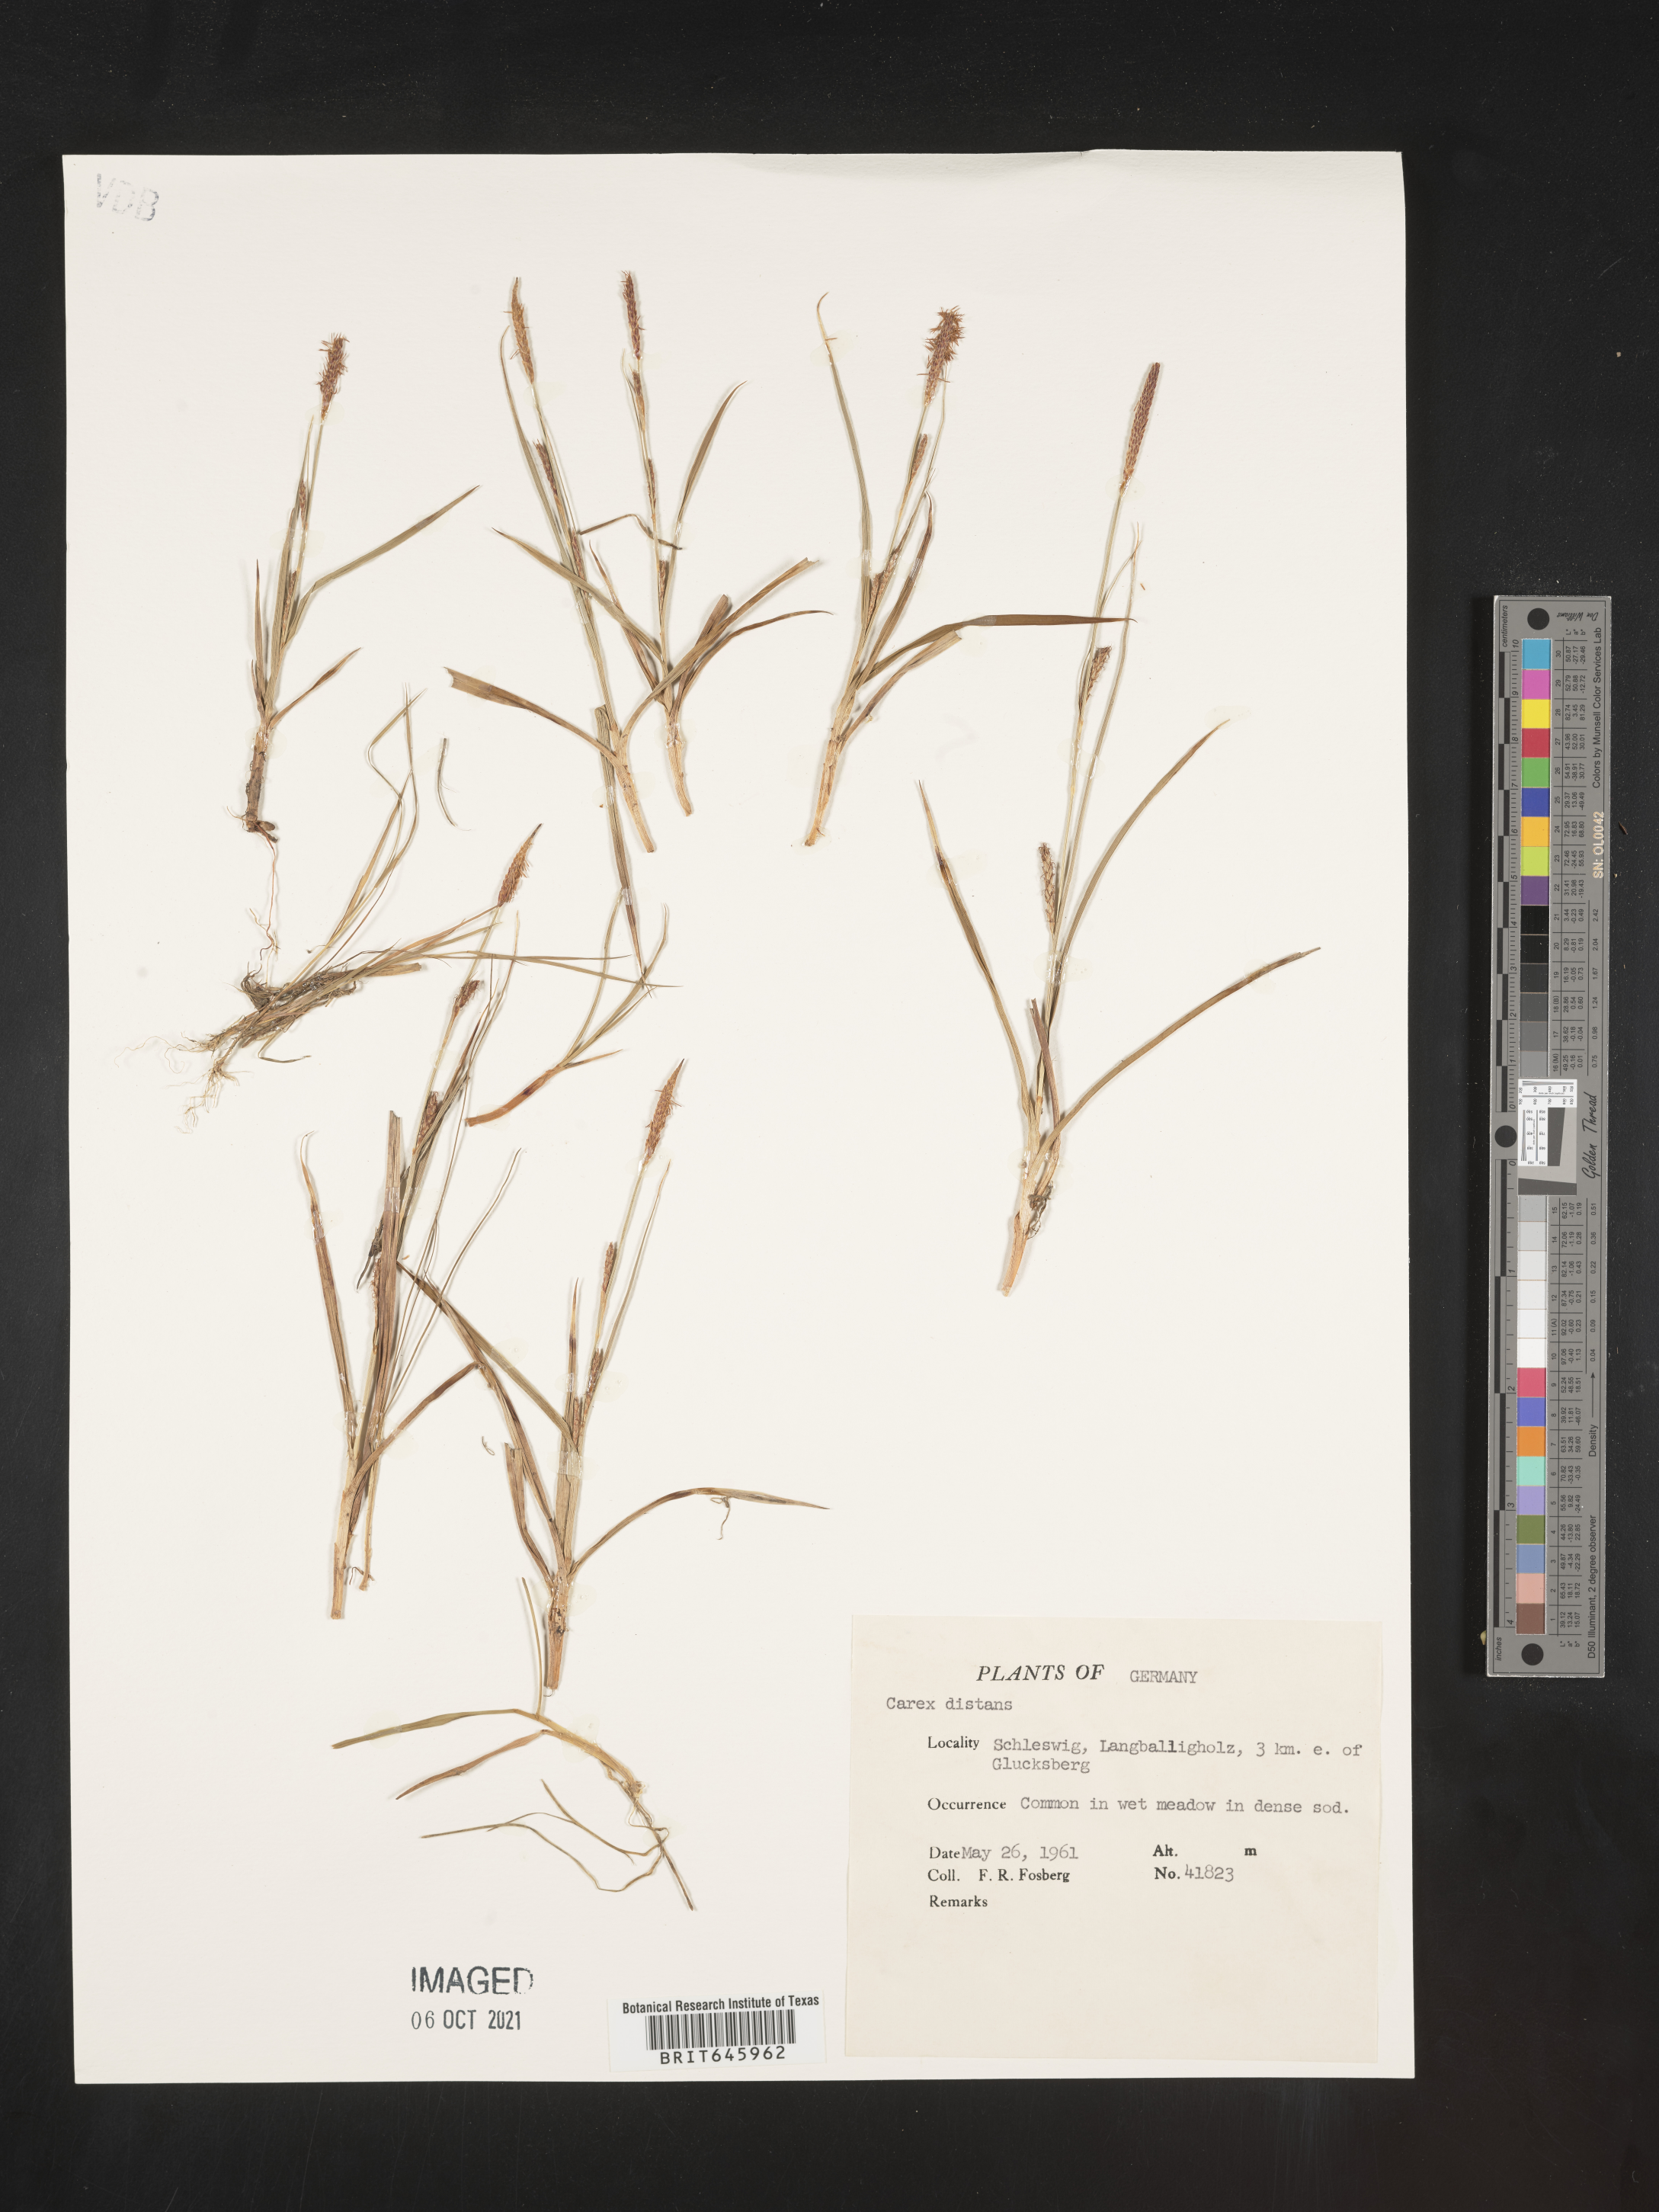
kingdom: Plantae
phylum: Tracheophyta
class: Liliopsida
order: Poales
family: Cyperaceae
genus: Carex
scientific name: Carex distans
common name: Distant sedge
